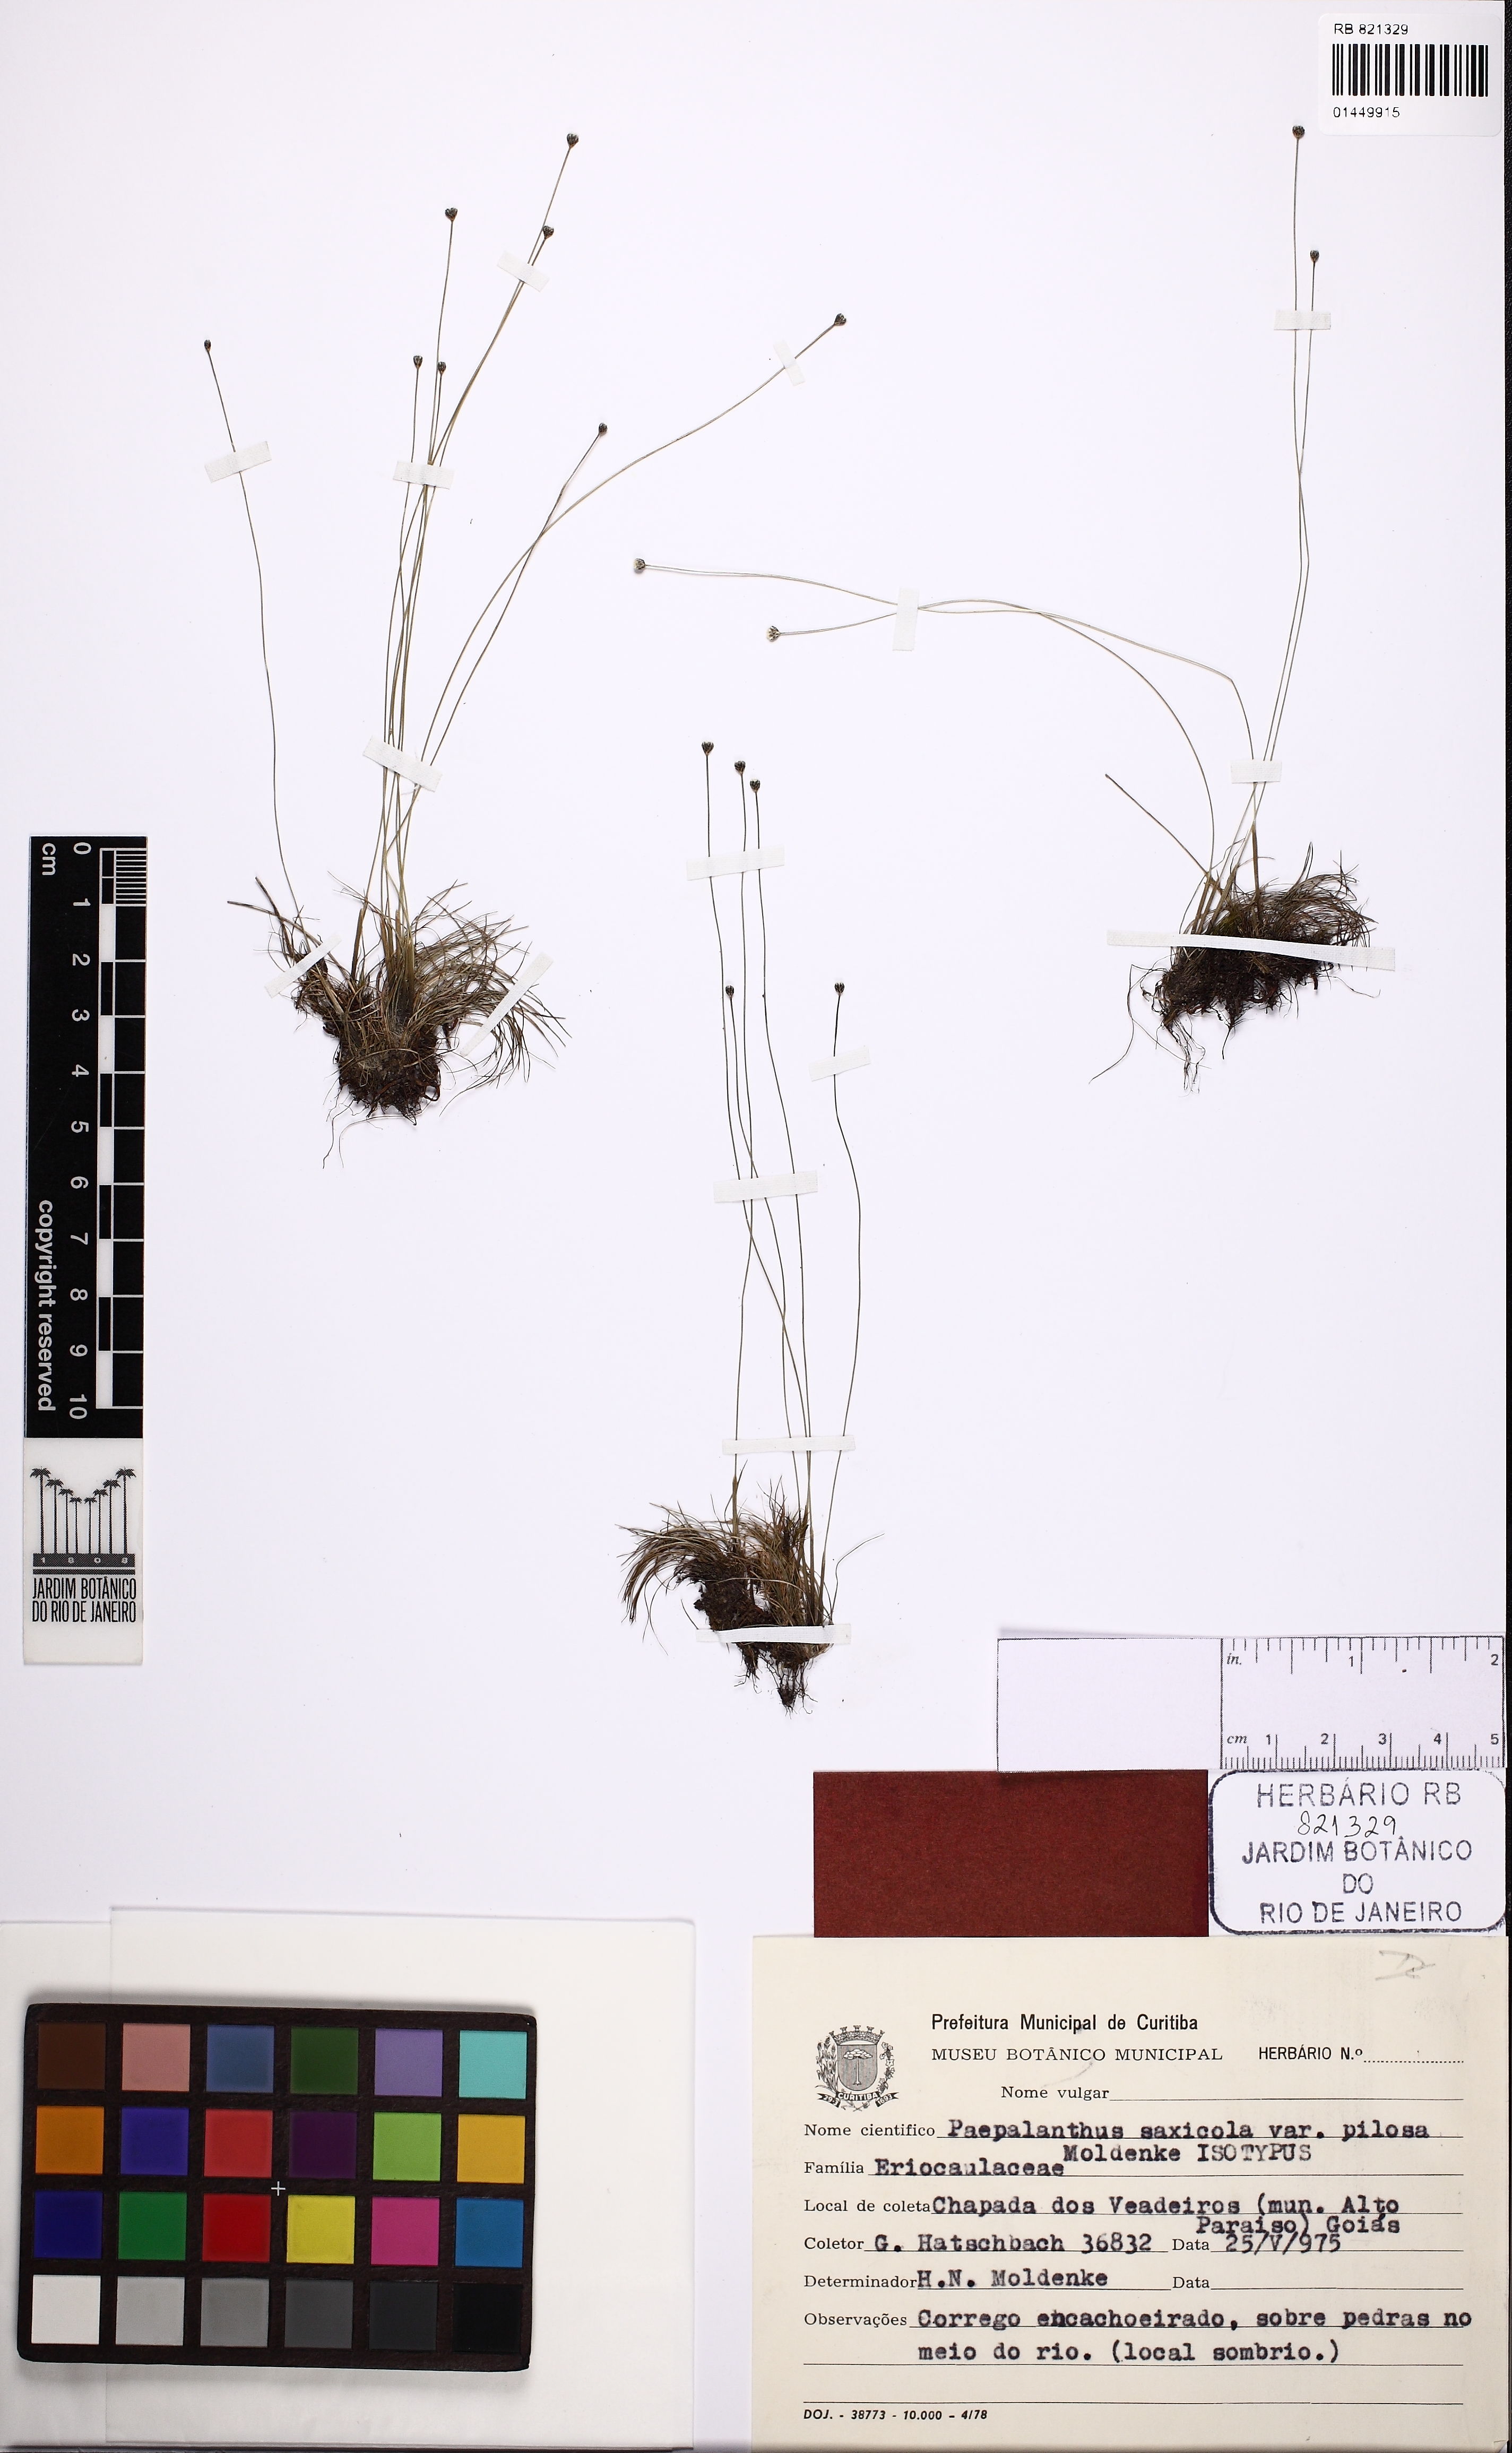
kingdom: Plantae
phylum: Tracheophyta
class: Liliopsida
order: Poales
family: Eriocaulaceae
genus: Syngonanthus
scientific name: Syngonanthus saxicola
